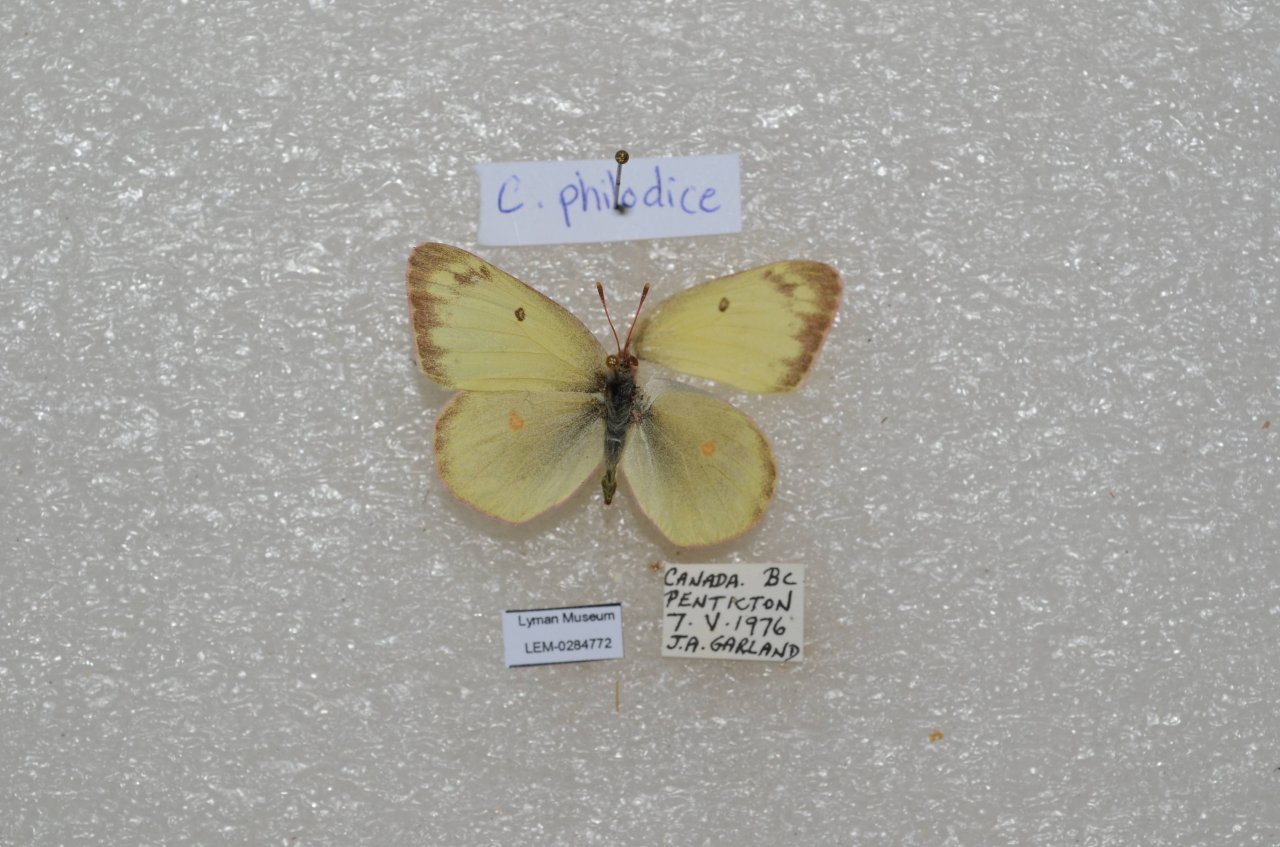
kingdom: Animalia
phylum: Arthropoda
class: Insecta
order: Lepidoptera
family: Pieridae
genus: Colias
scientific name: Colias philodice
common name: Clouded Sulphur
